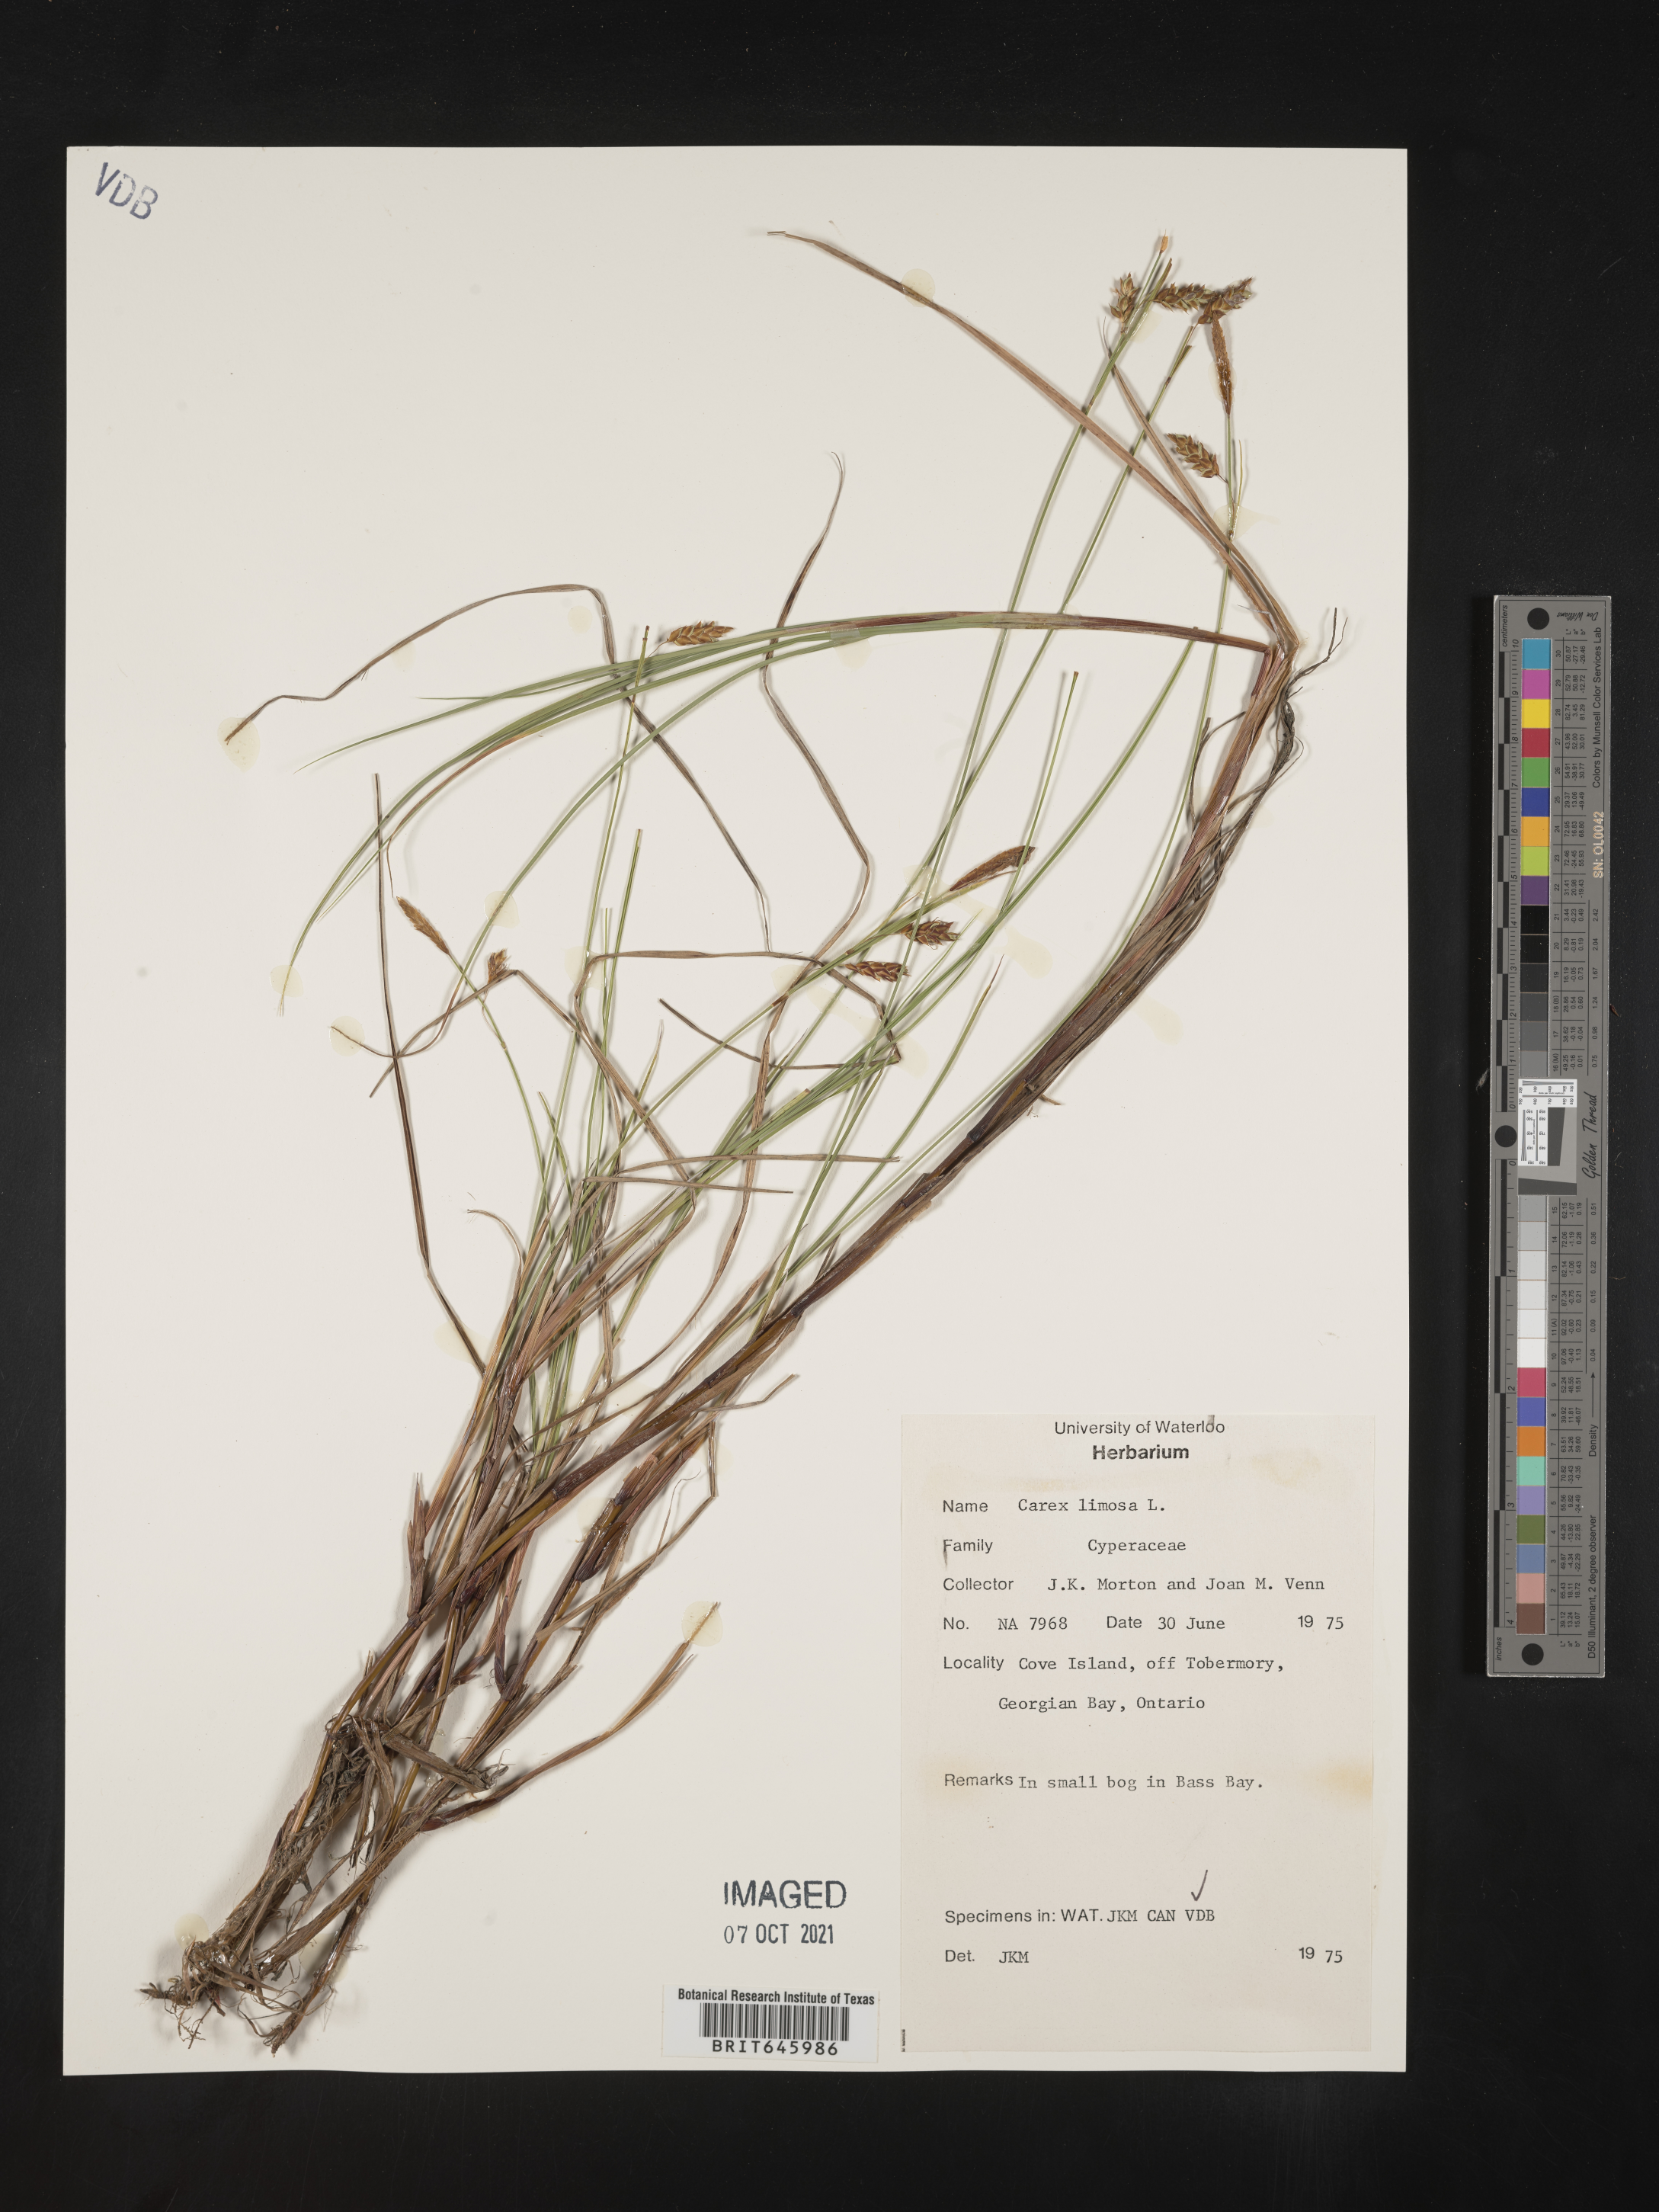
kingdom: Plantae
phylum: Tracheophyta
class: Liliopsida
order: Poales
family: Cyperaceae
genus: Carex
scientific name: Carex limosa
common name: Bog sedge
